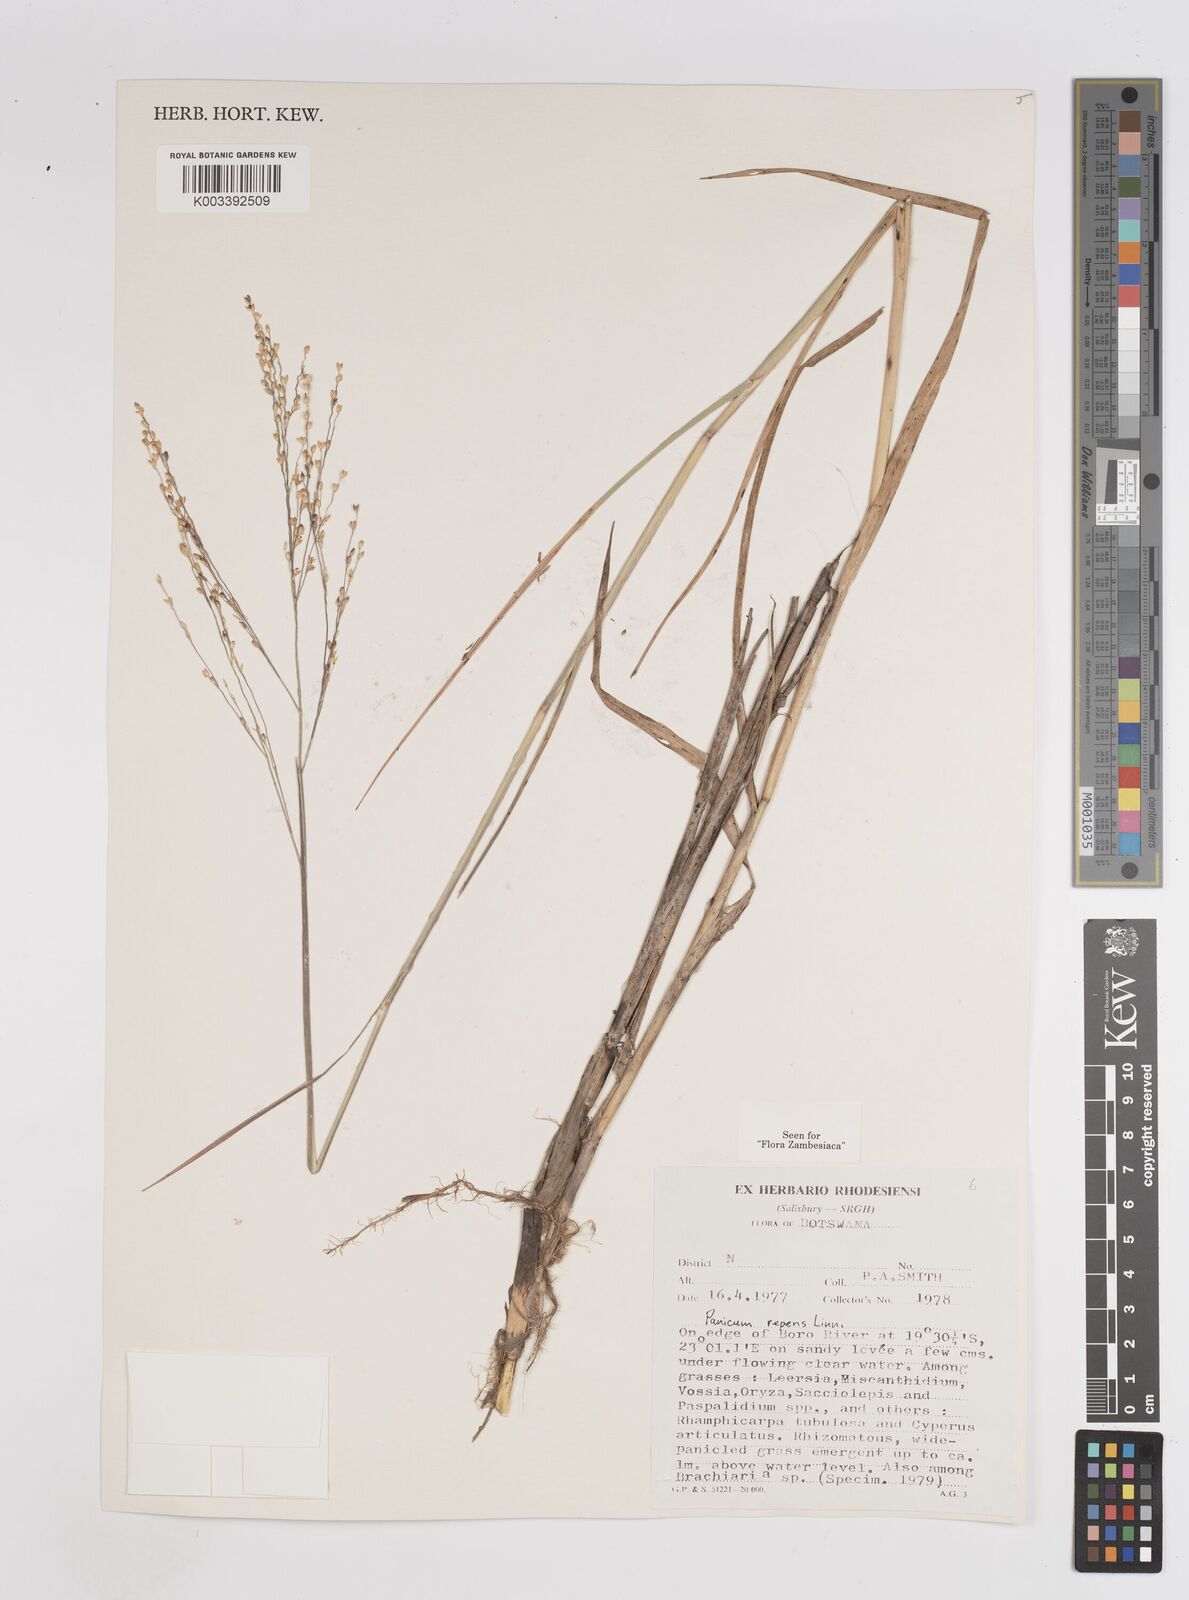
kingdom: Plantae
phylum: Tracheophyta
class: Liliopsida
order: Poales
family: Poaceae
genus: Panicum
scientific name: Panicum repens
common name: Torpedo grass
